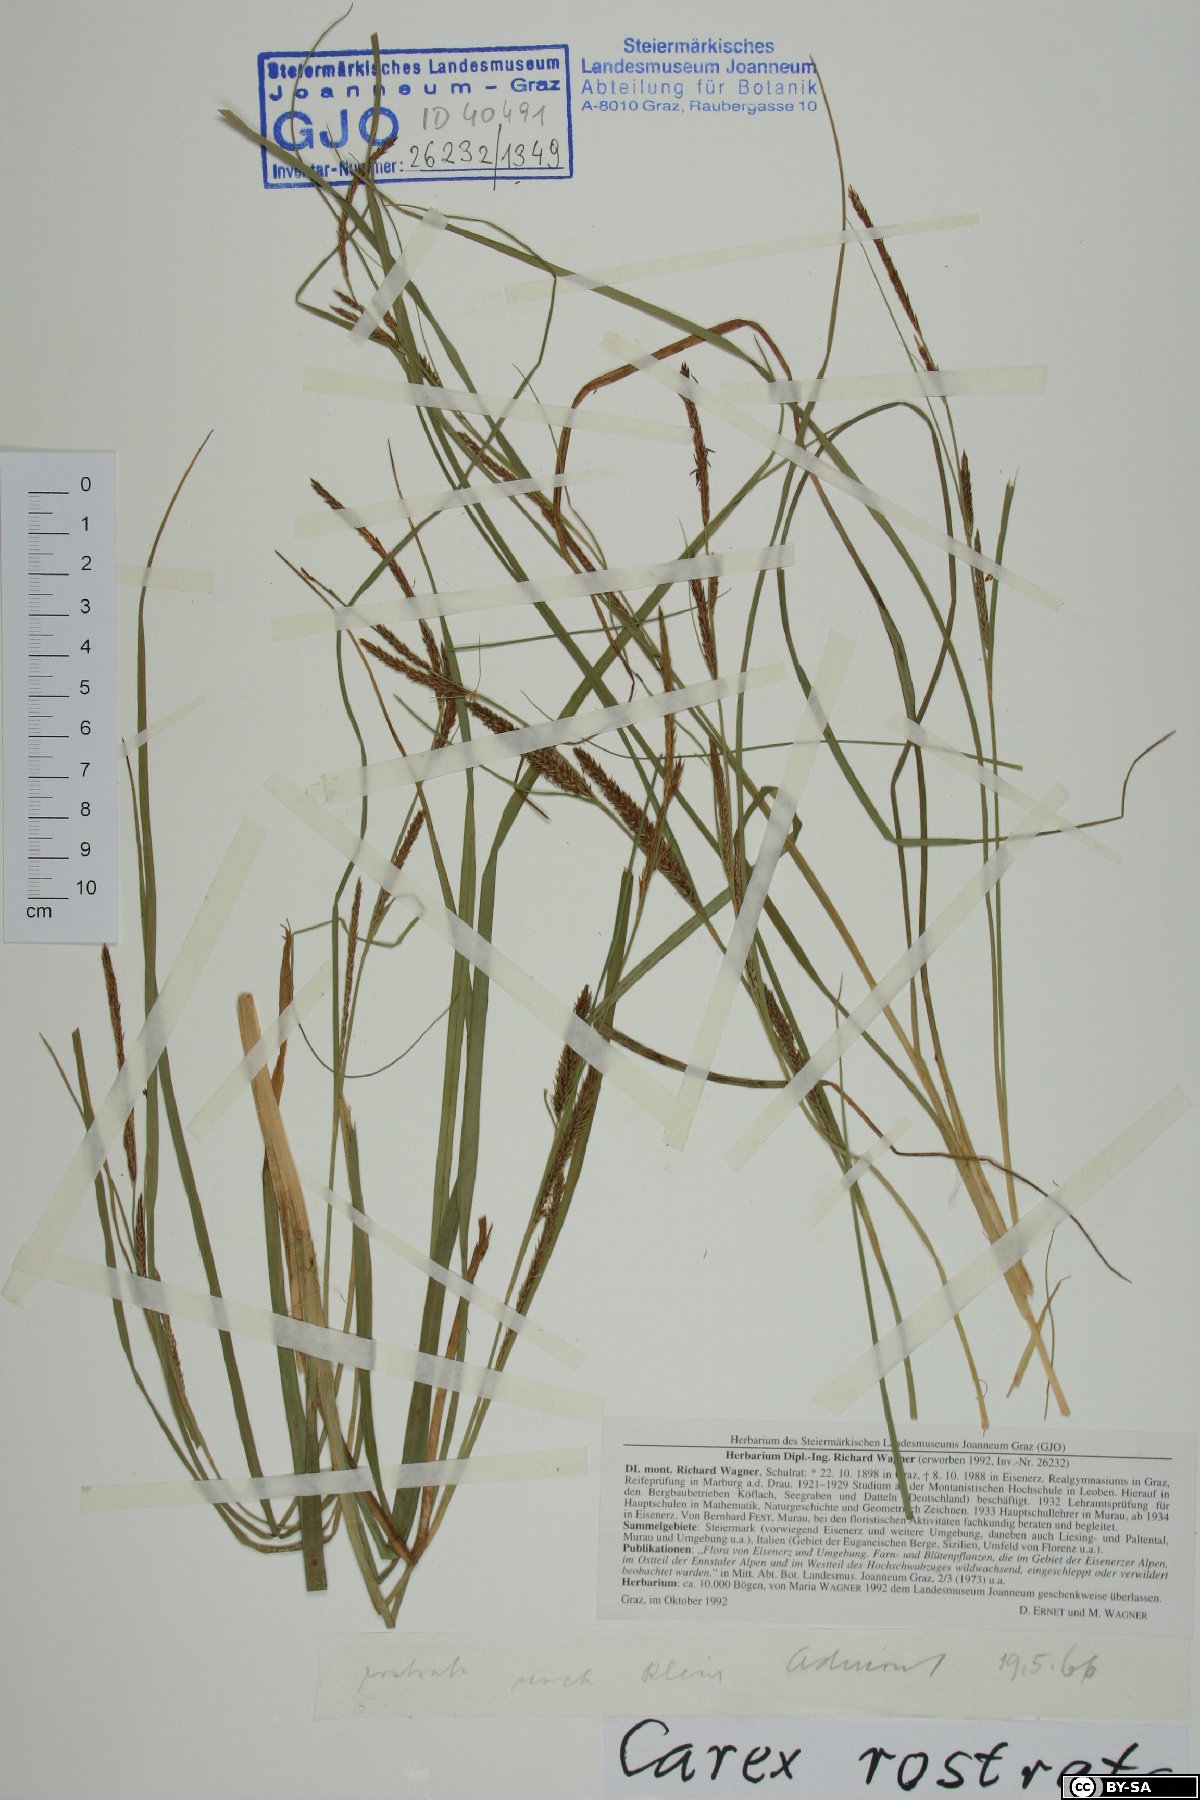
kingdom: Plantae
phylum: Tracheophyta
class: Liliopsida
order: Poales
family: Cyperaceae
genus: Carex
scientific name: Carex rostrata
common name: Bottle sedge
